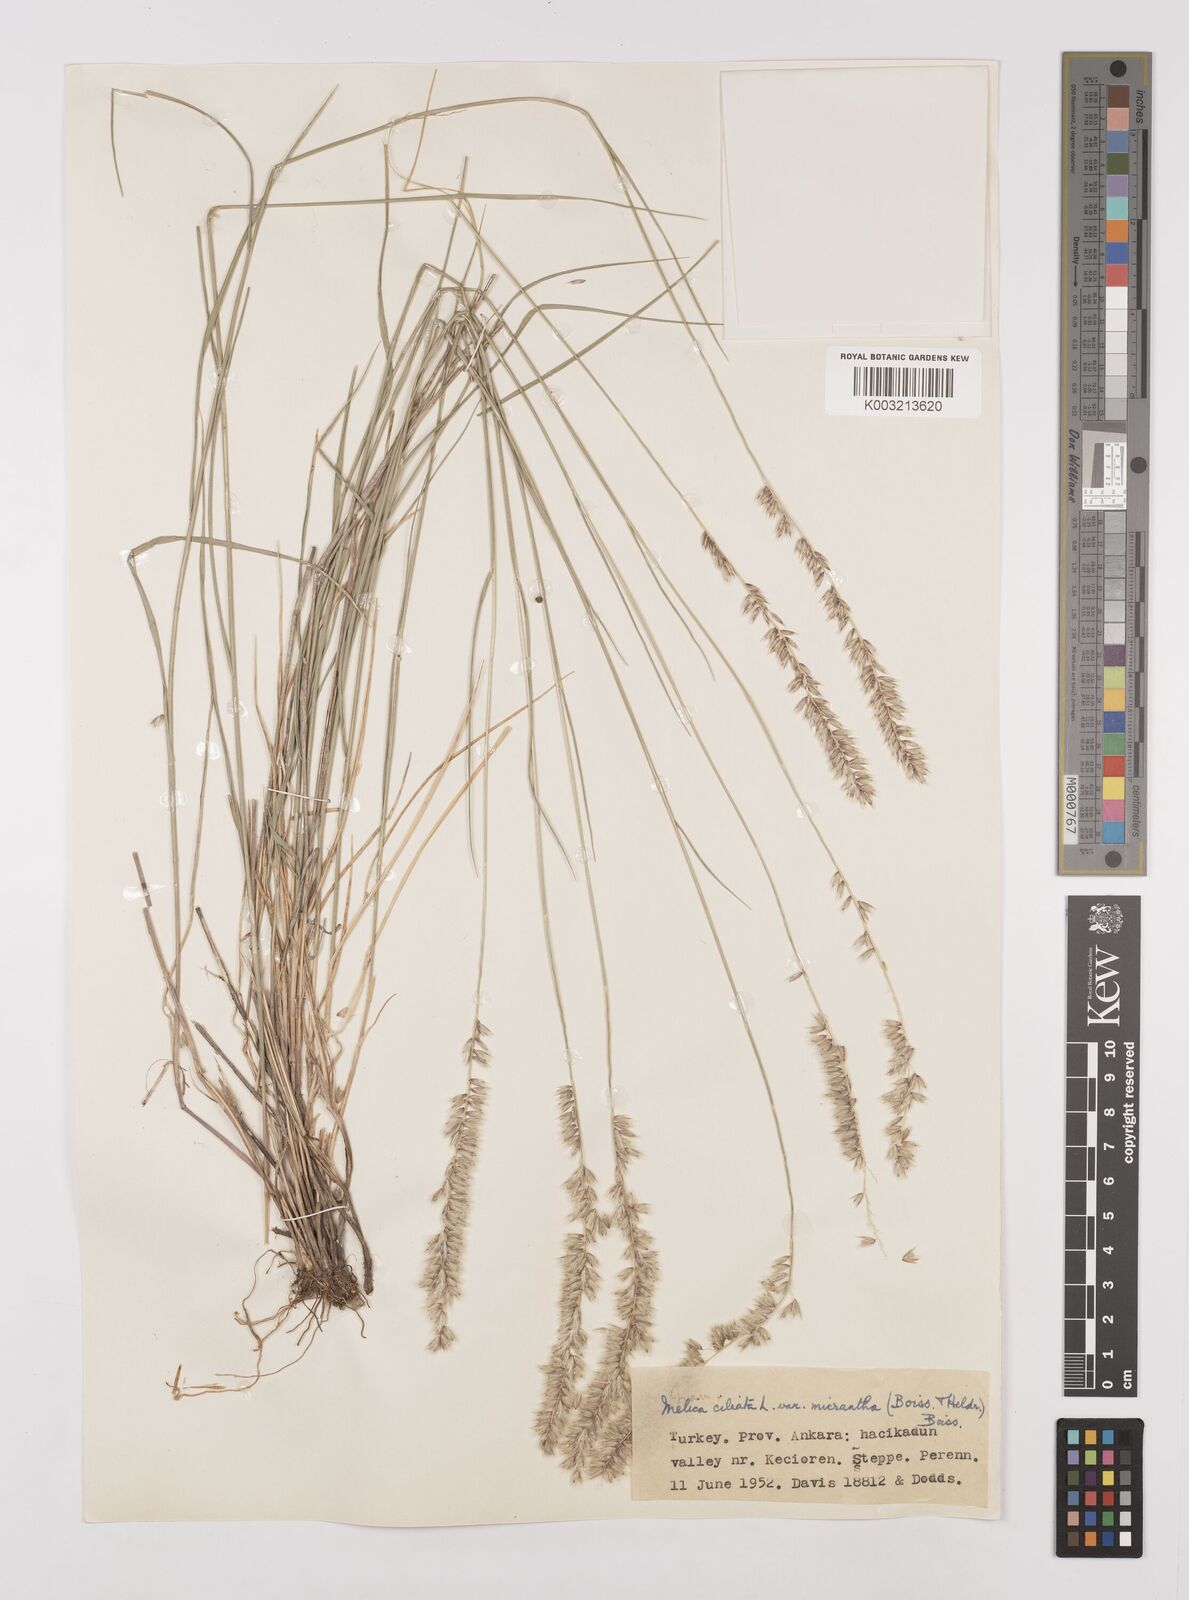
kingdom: Plantae
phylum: Tracheophyta
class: Liliopsida
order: Poales
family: Poaceae
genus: Melica
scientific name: Melica ciliata
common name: Hairy melicgrass
